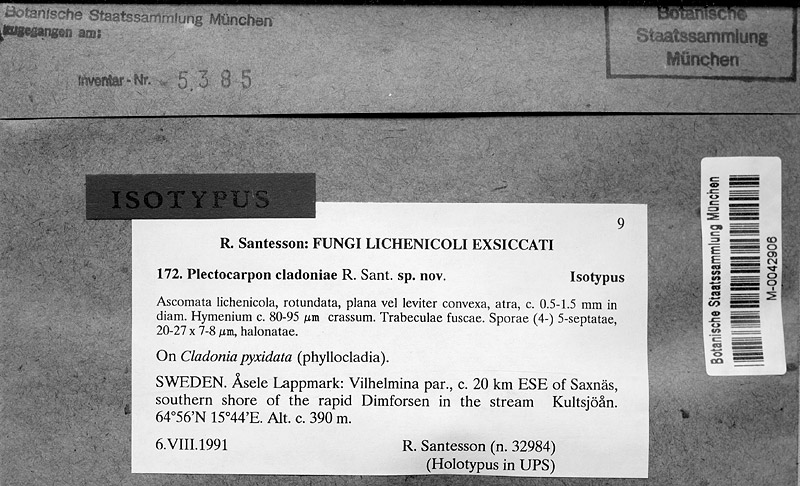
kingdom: Fungi
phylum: Ascomycota
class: Lecanoromycetes
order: Lecanorales
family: Cladoniaceae
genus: Cladonia
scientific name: Cladonia pyxidata
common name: Pebbled pixie cup
